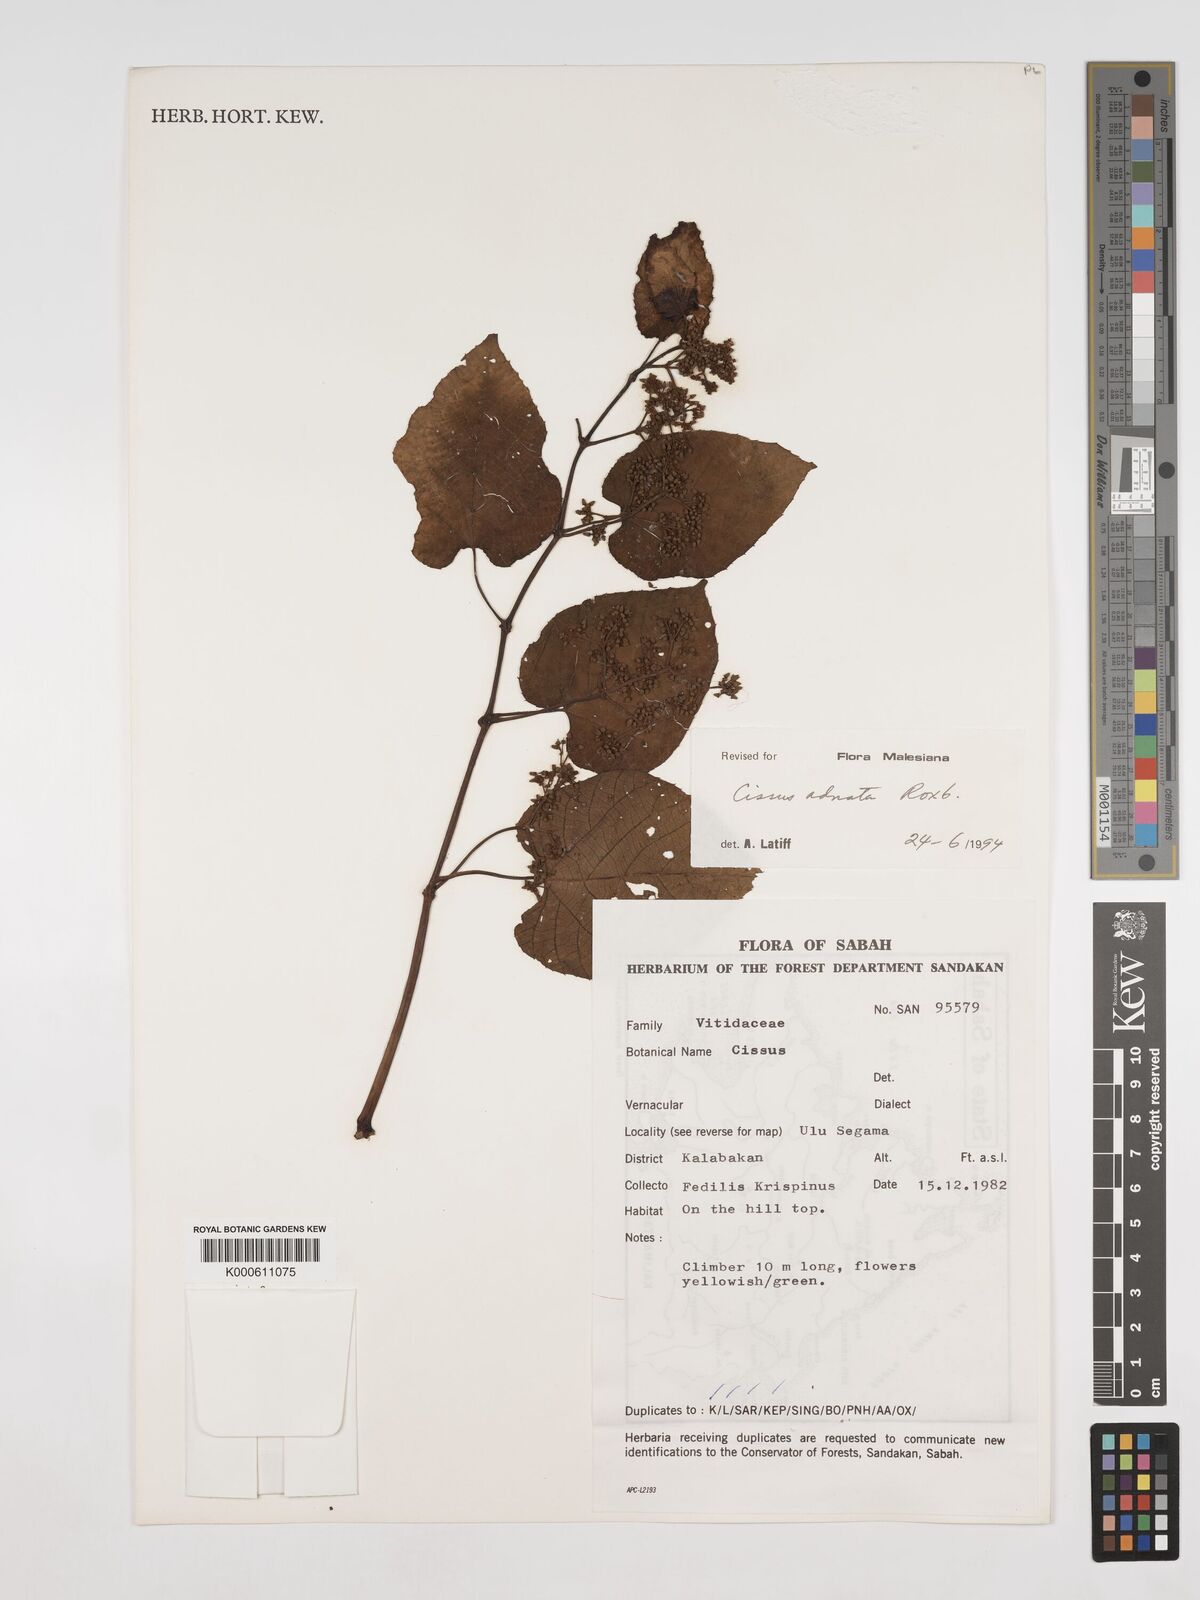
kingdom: Plantae
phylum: Tracheophyta
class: Magnoliopsida
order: Vitales
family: Vitaceae
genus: Cissus
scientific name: Cissus adnata
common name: Heart-leaf-grape
